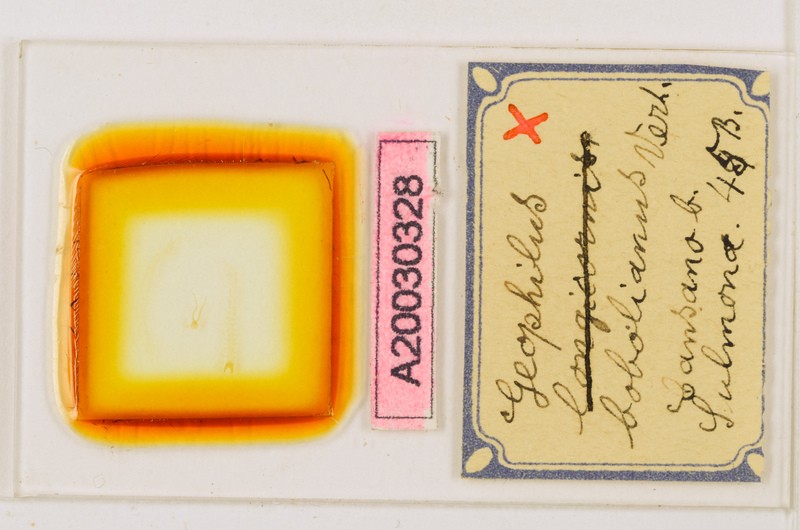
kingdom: Animalia
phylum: Arthropoda
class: Chilopoda
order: Geophilomorpha
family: Geophilidae
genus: Geophilus
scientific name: Geophilus bobolianus
